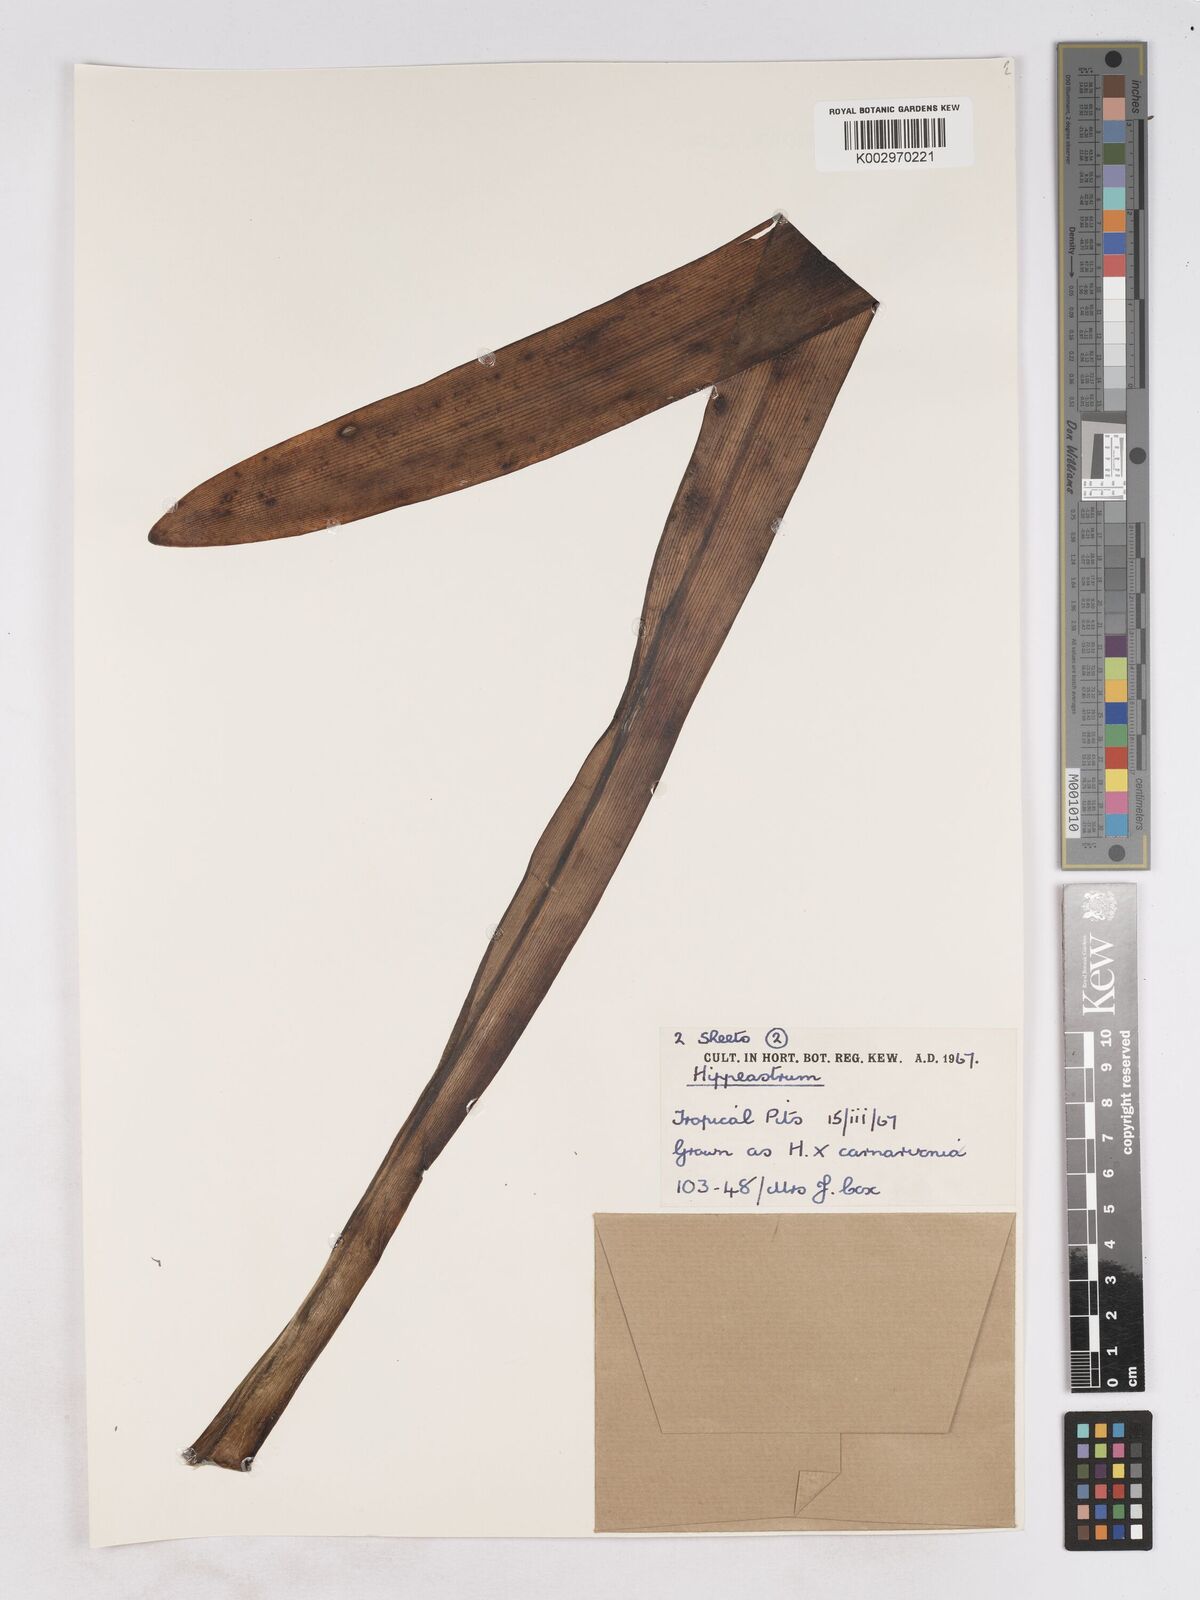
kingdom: Plantae
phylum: Tracheophyta
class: Liliopsida
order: Asparagales
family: Amaryllidaceae
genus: Hippeastrum
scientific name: Hippeastrum
